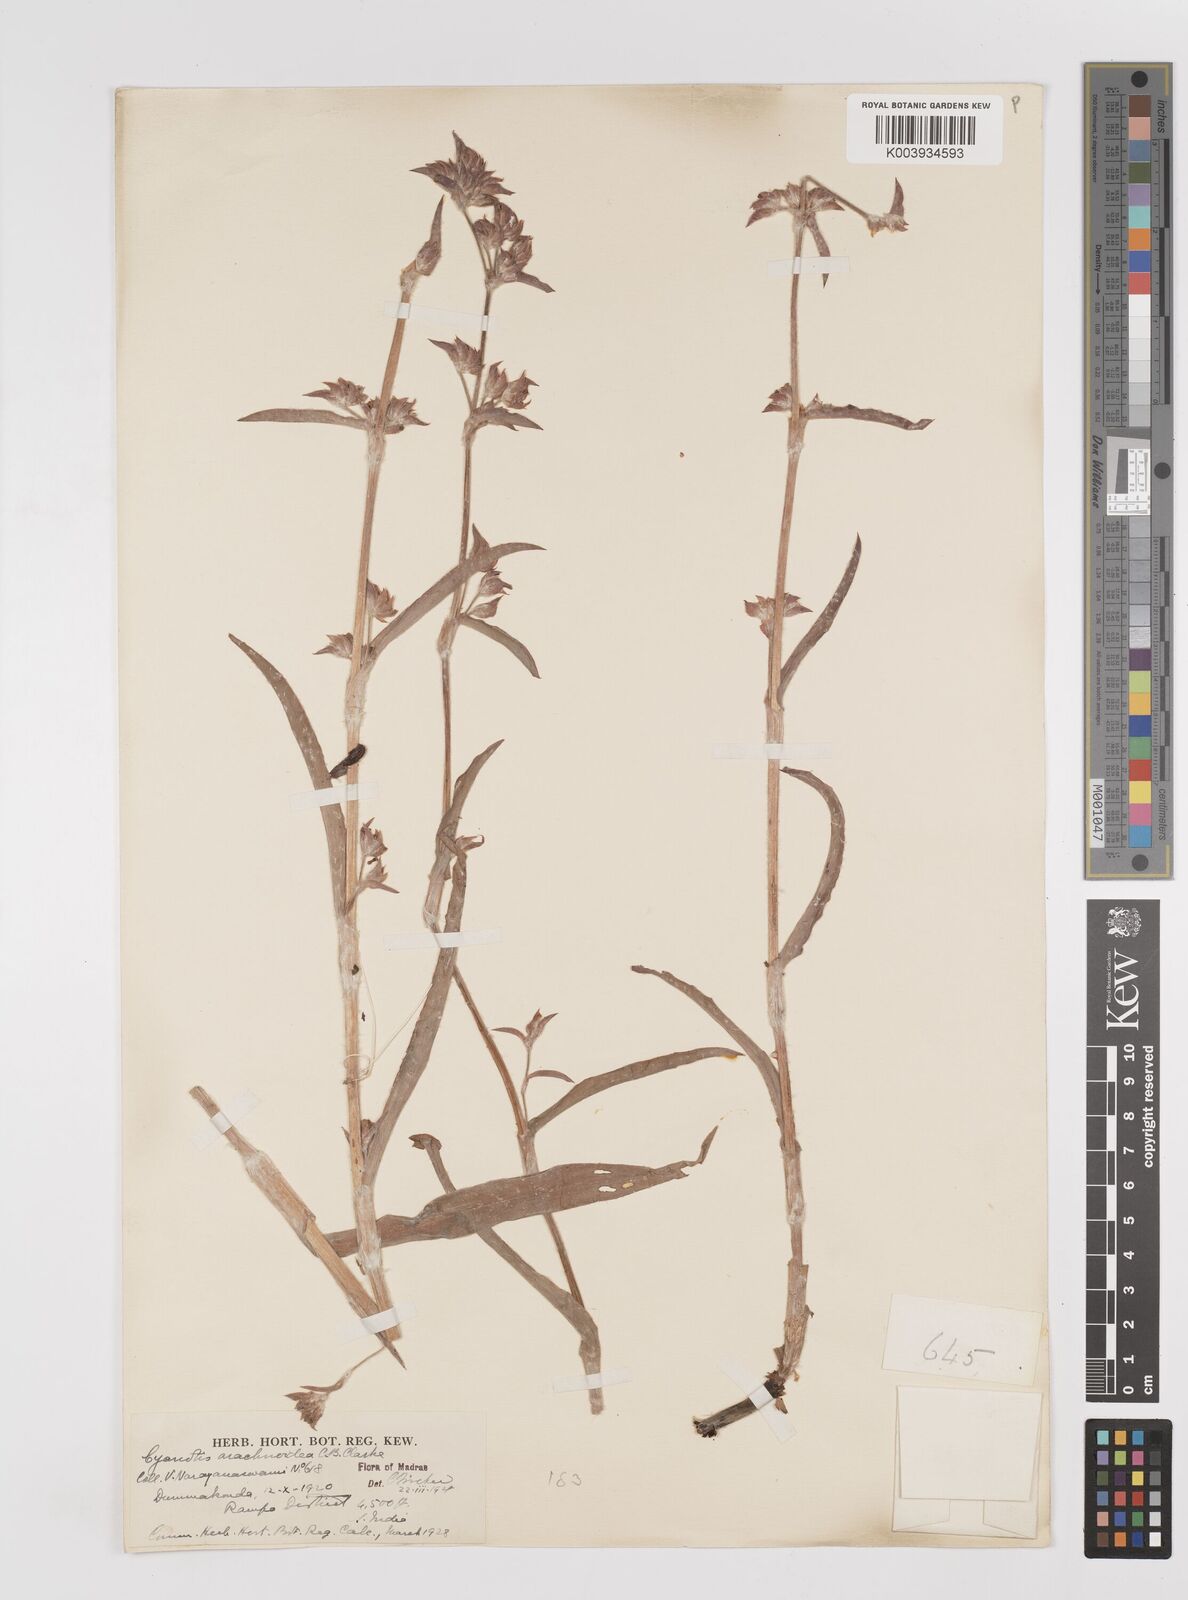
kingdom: Plantae
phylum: Tracheophyta
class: Liliopsida
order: Commelinales
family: Commelinaceae
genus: Cyanotis
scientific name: Cyanotis arachnoidea
